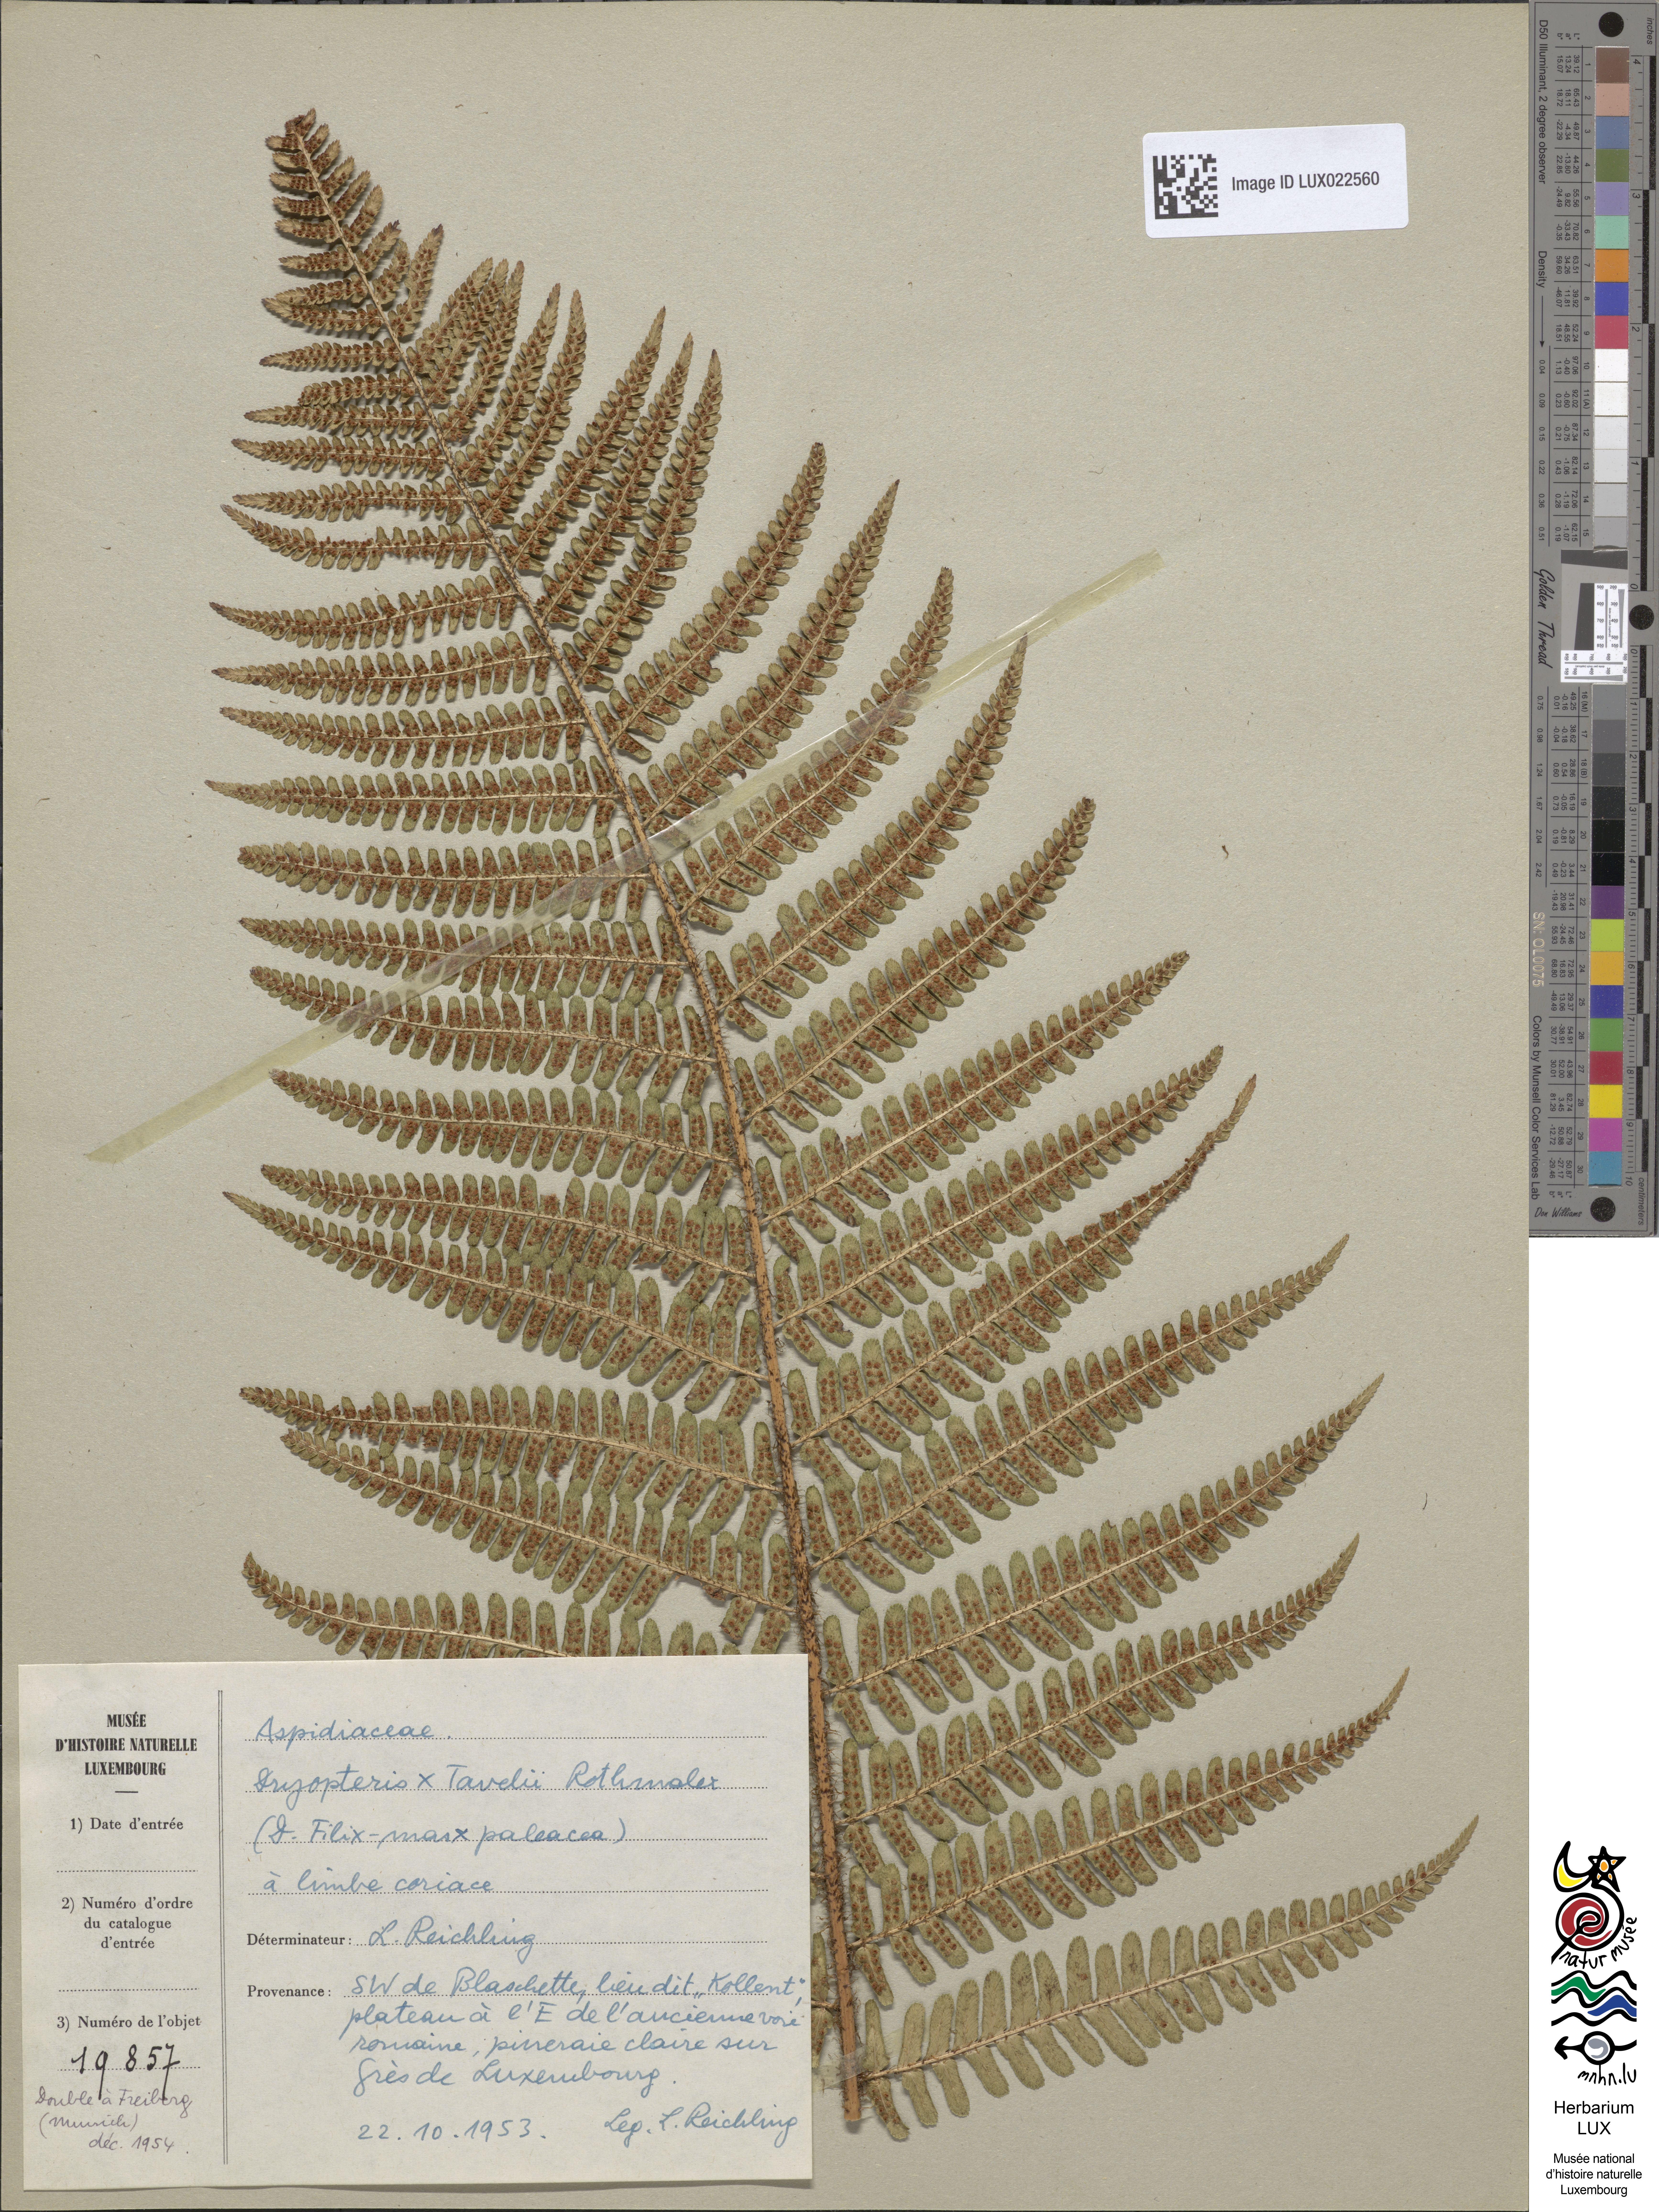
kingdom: Plantae
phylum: Tracheophyta
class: Polypodiopsida
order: Polypodiales
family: Dryopteridaceae
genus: Dryopteris
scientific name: Dryopteris borreri
